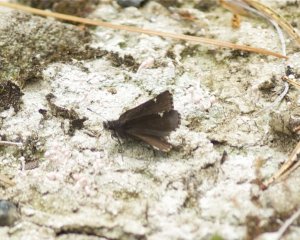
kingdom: Animalia
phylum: Arthropoda
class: Insecta
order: Lepidoptera
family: Hesperiidae
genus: Mastor
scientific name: Mastor vialis
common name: Common Roadside-Skipper
